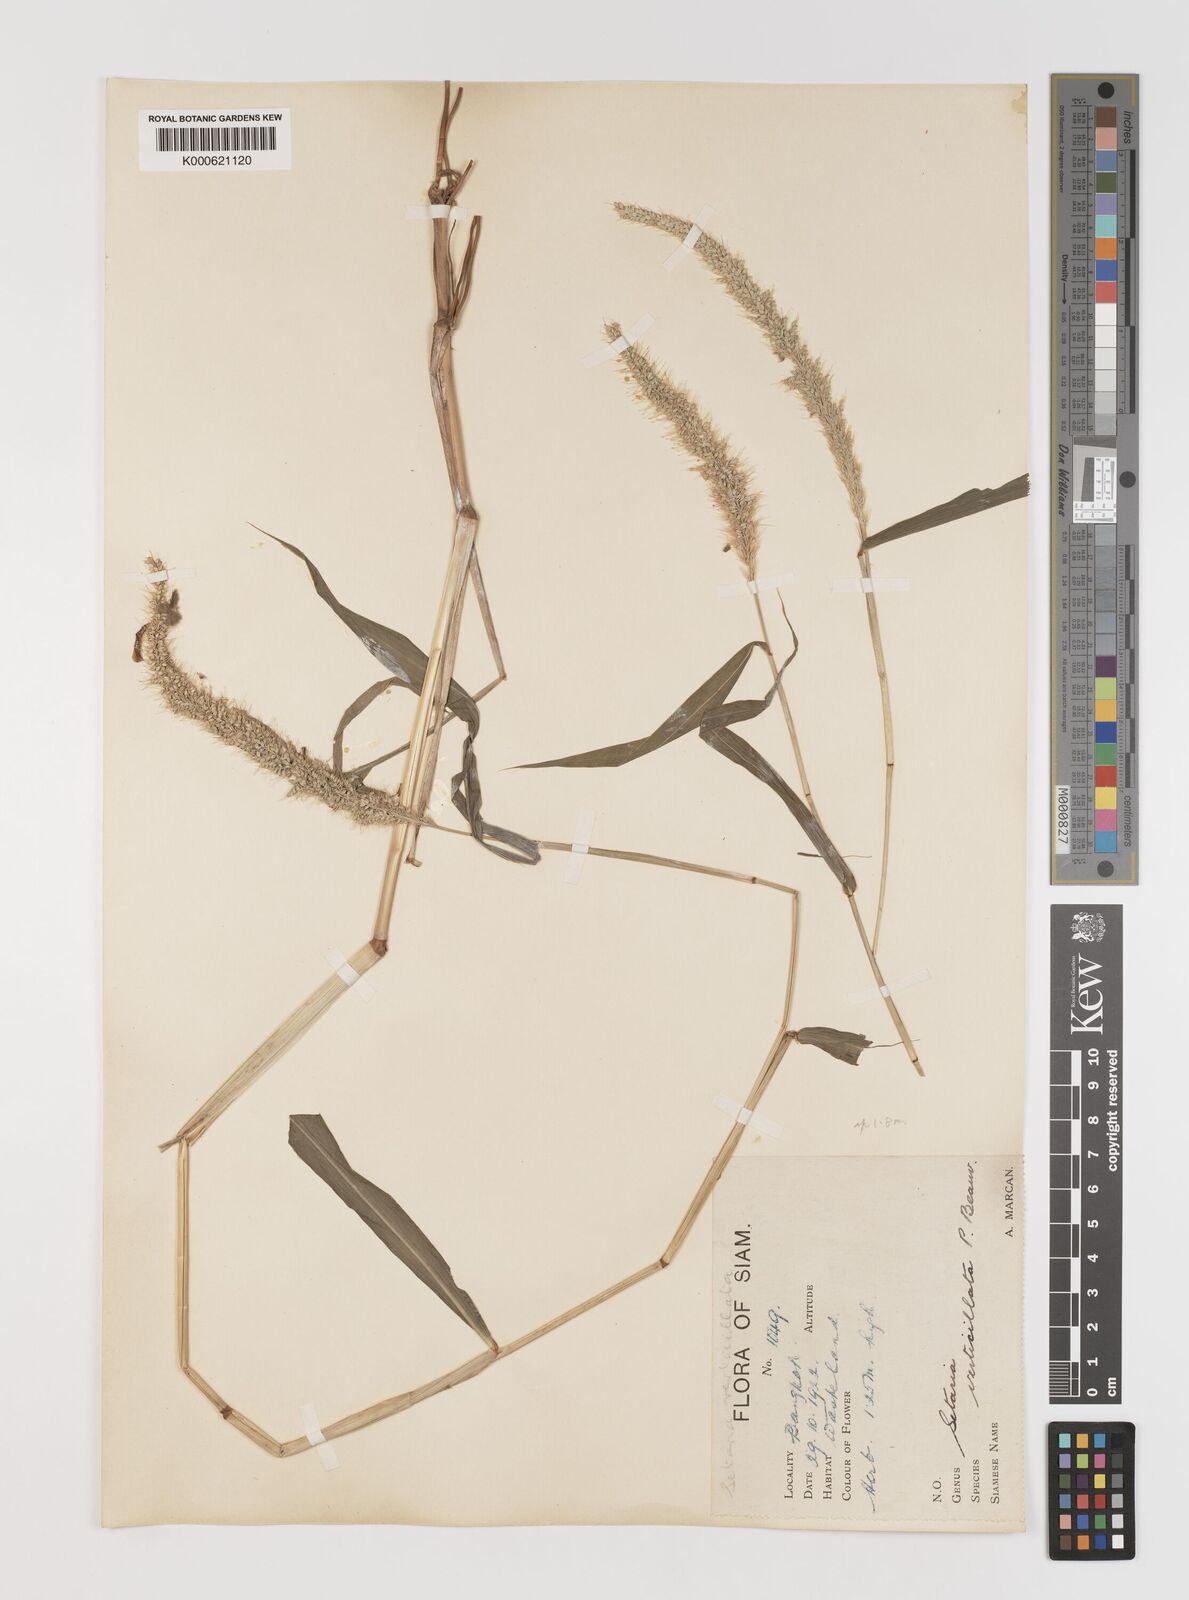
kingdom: Plantae
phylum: Tracheophyta
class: Liliopsida
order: Poales
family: Poaceae
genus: Setaria
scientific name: Setaria verticillata
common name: Hooked bristlegrass
